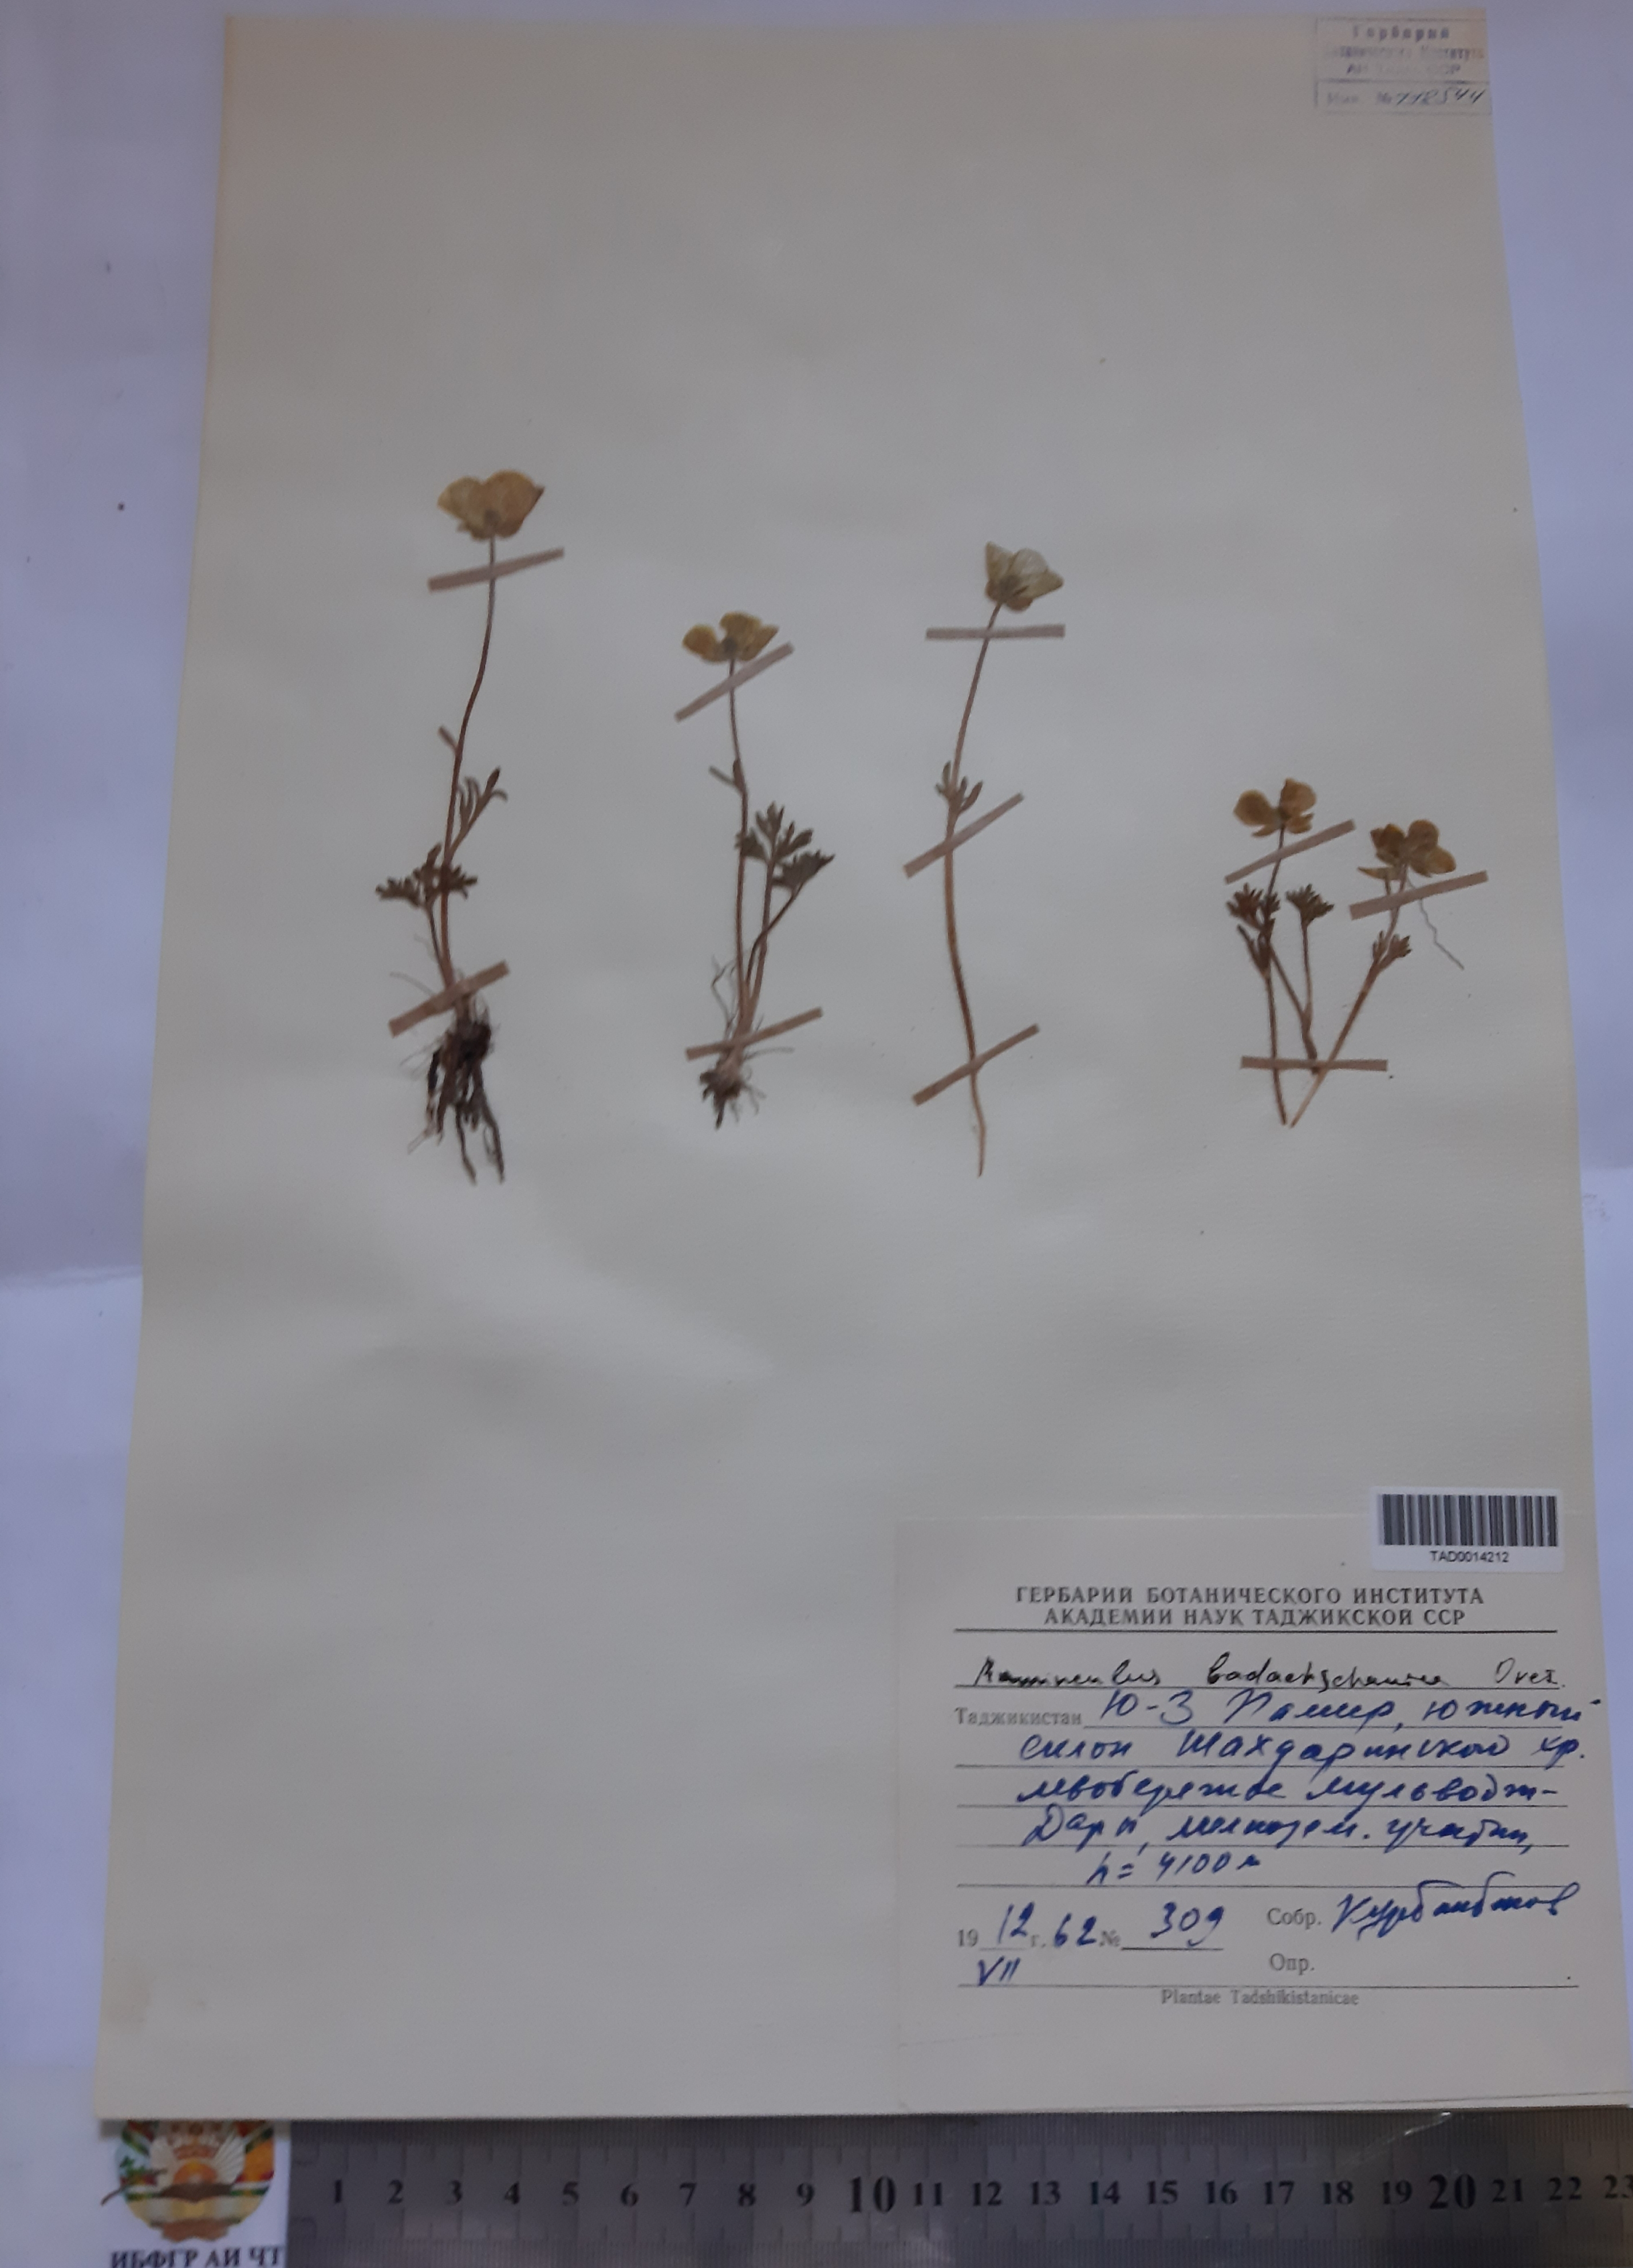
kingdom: Plantae
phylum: Tracheophyta
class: Magnoliopsida
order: Ranunculales
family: Ranunculaceae
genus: Ranunculus
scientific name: Ranunculus badachschanicus
